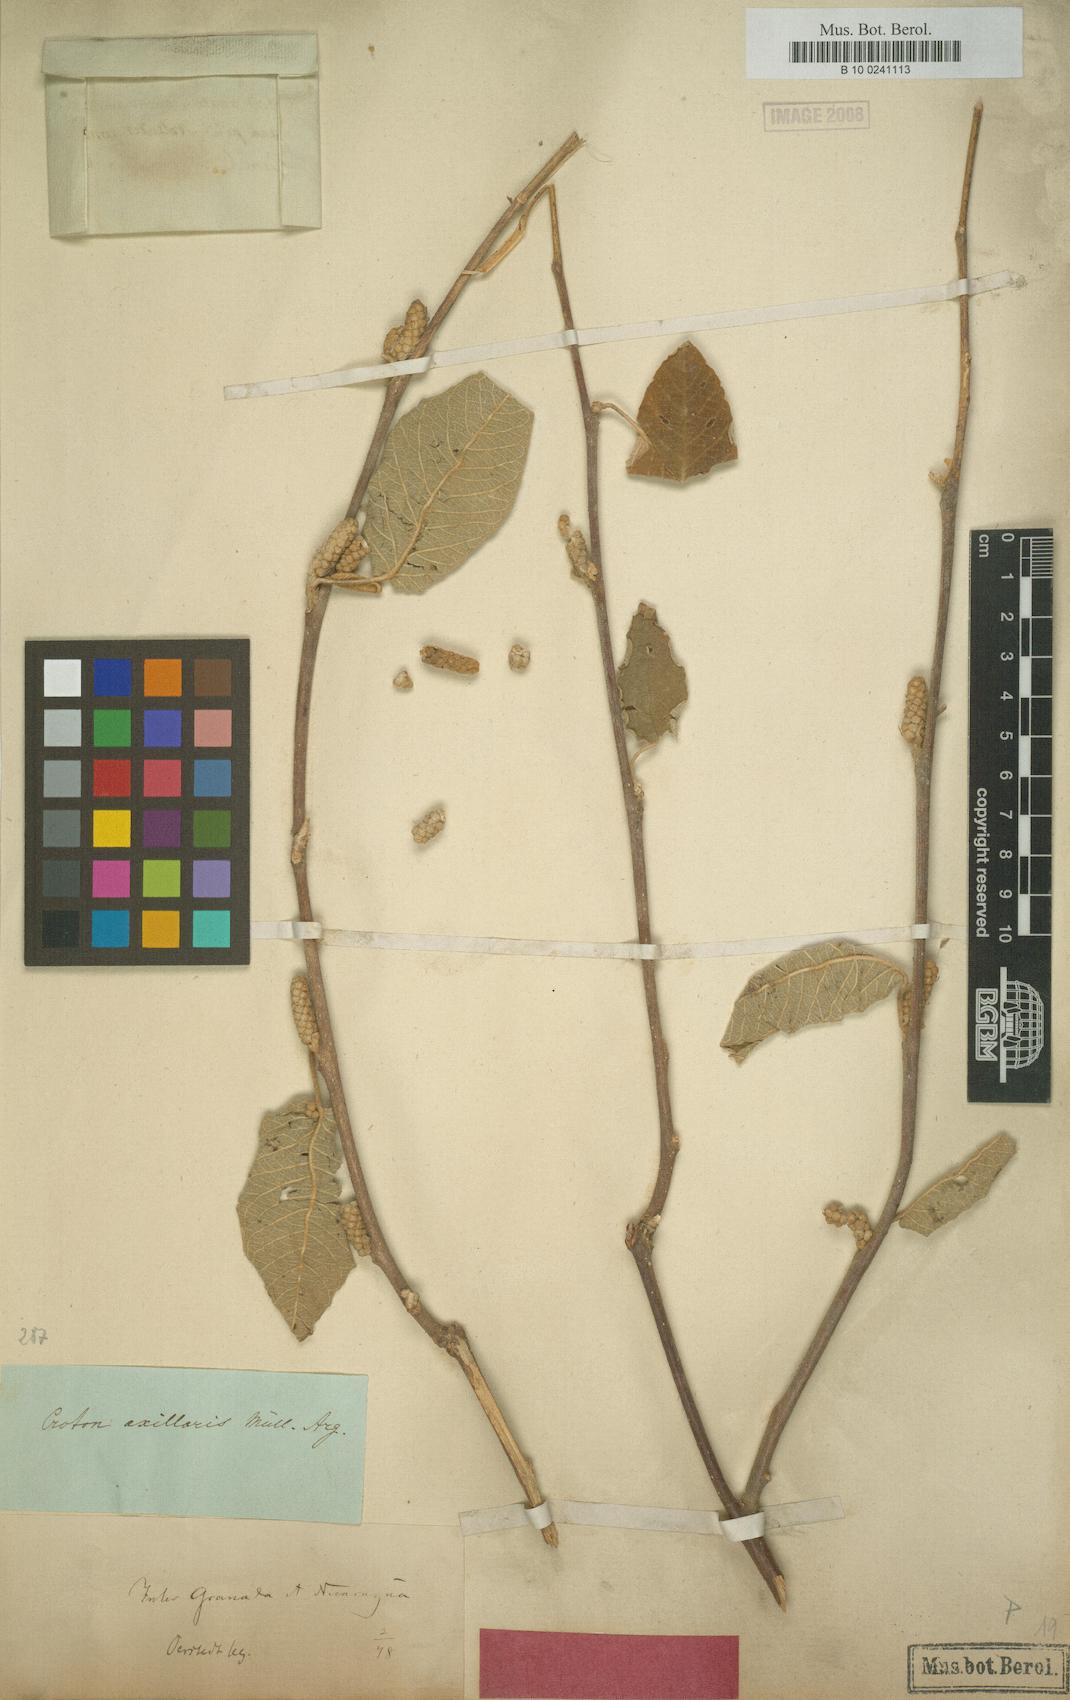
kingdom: Plantae
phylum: Tracheophyta
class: Magnoliopsida
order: Malpighiales
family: Euphorbiaceae
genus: Croton
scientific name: Croton axillaris
